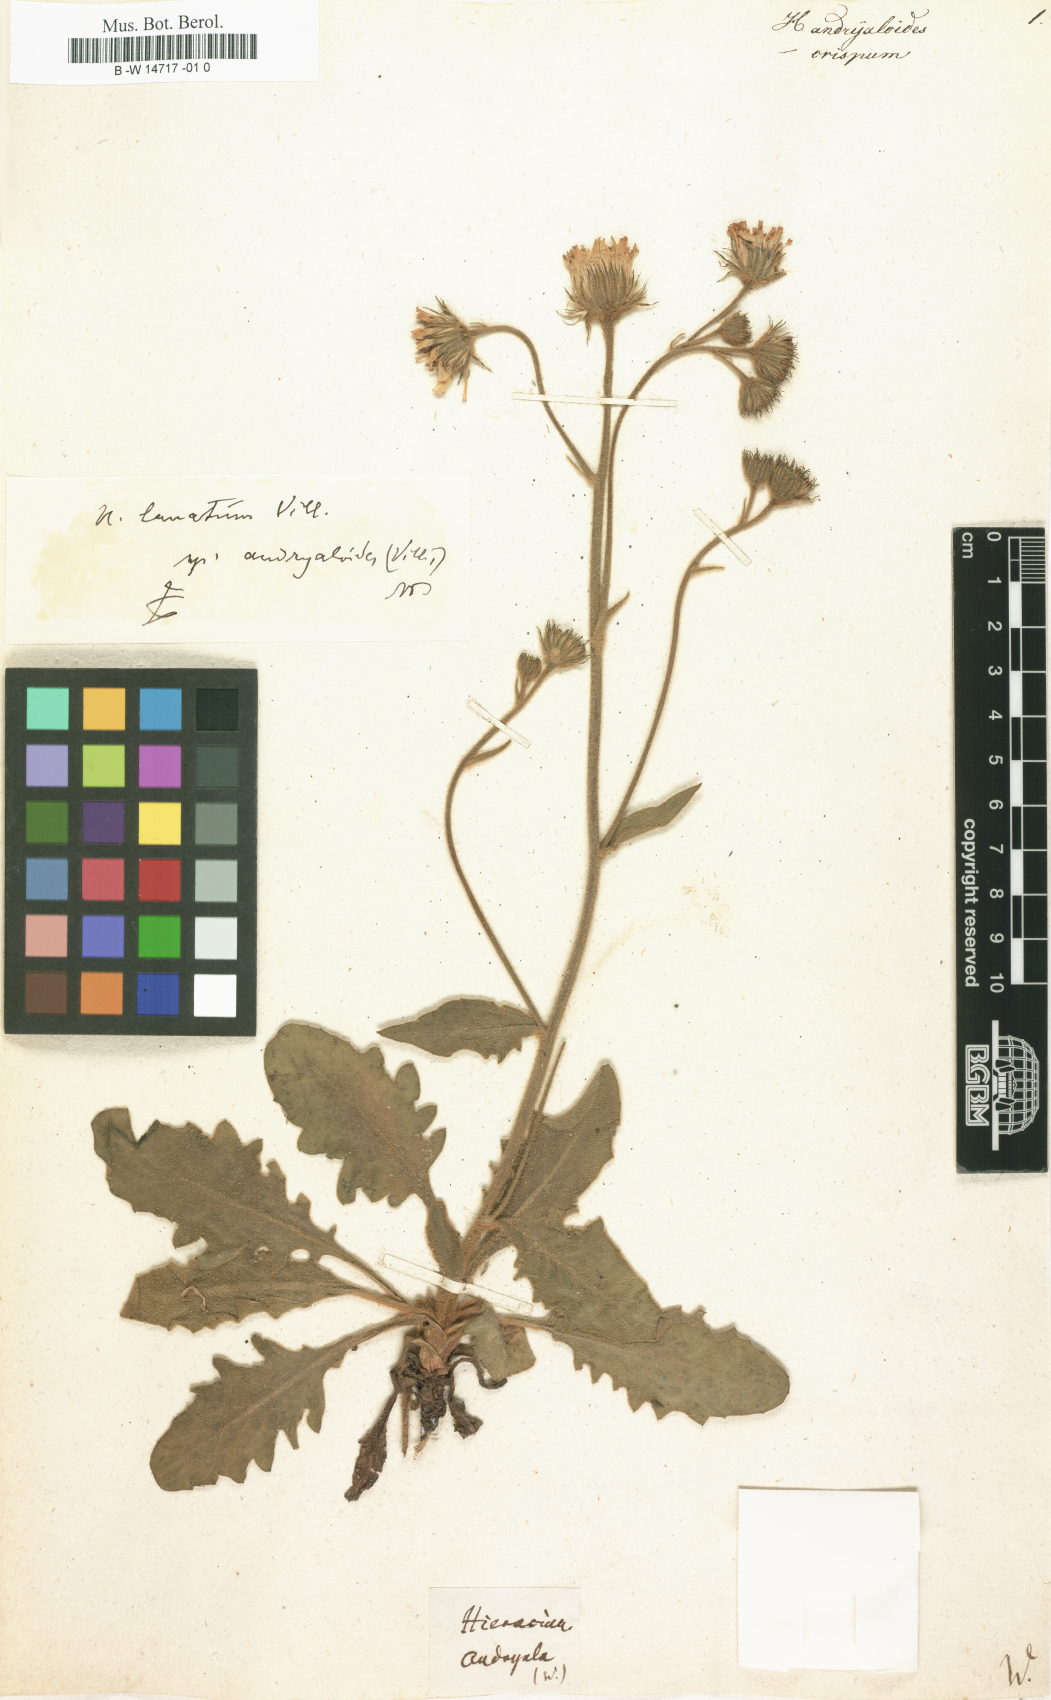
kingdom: Plantae
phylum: Tracheophyta
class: Magnoliopsida
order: Asterales
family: Asteraceae
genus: Hieracium
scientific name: Hieracium tomentosum
